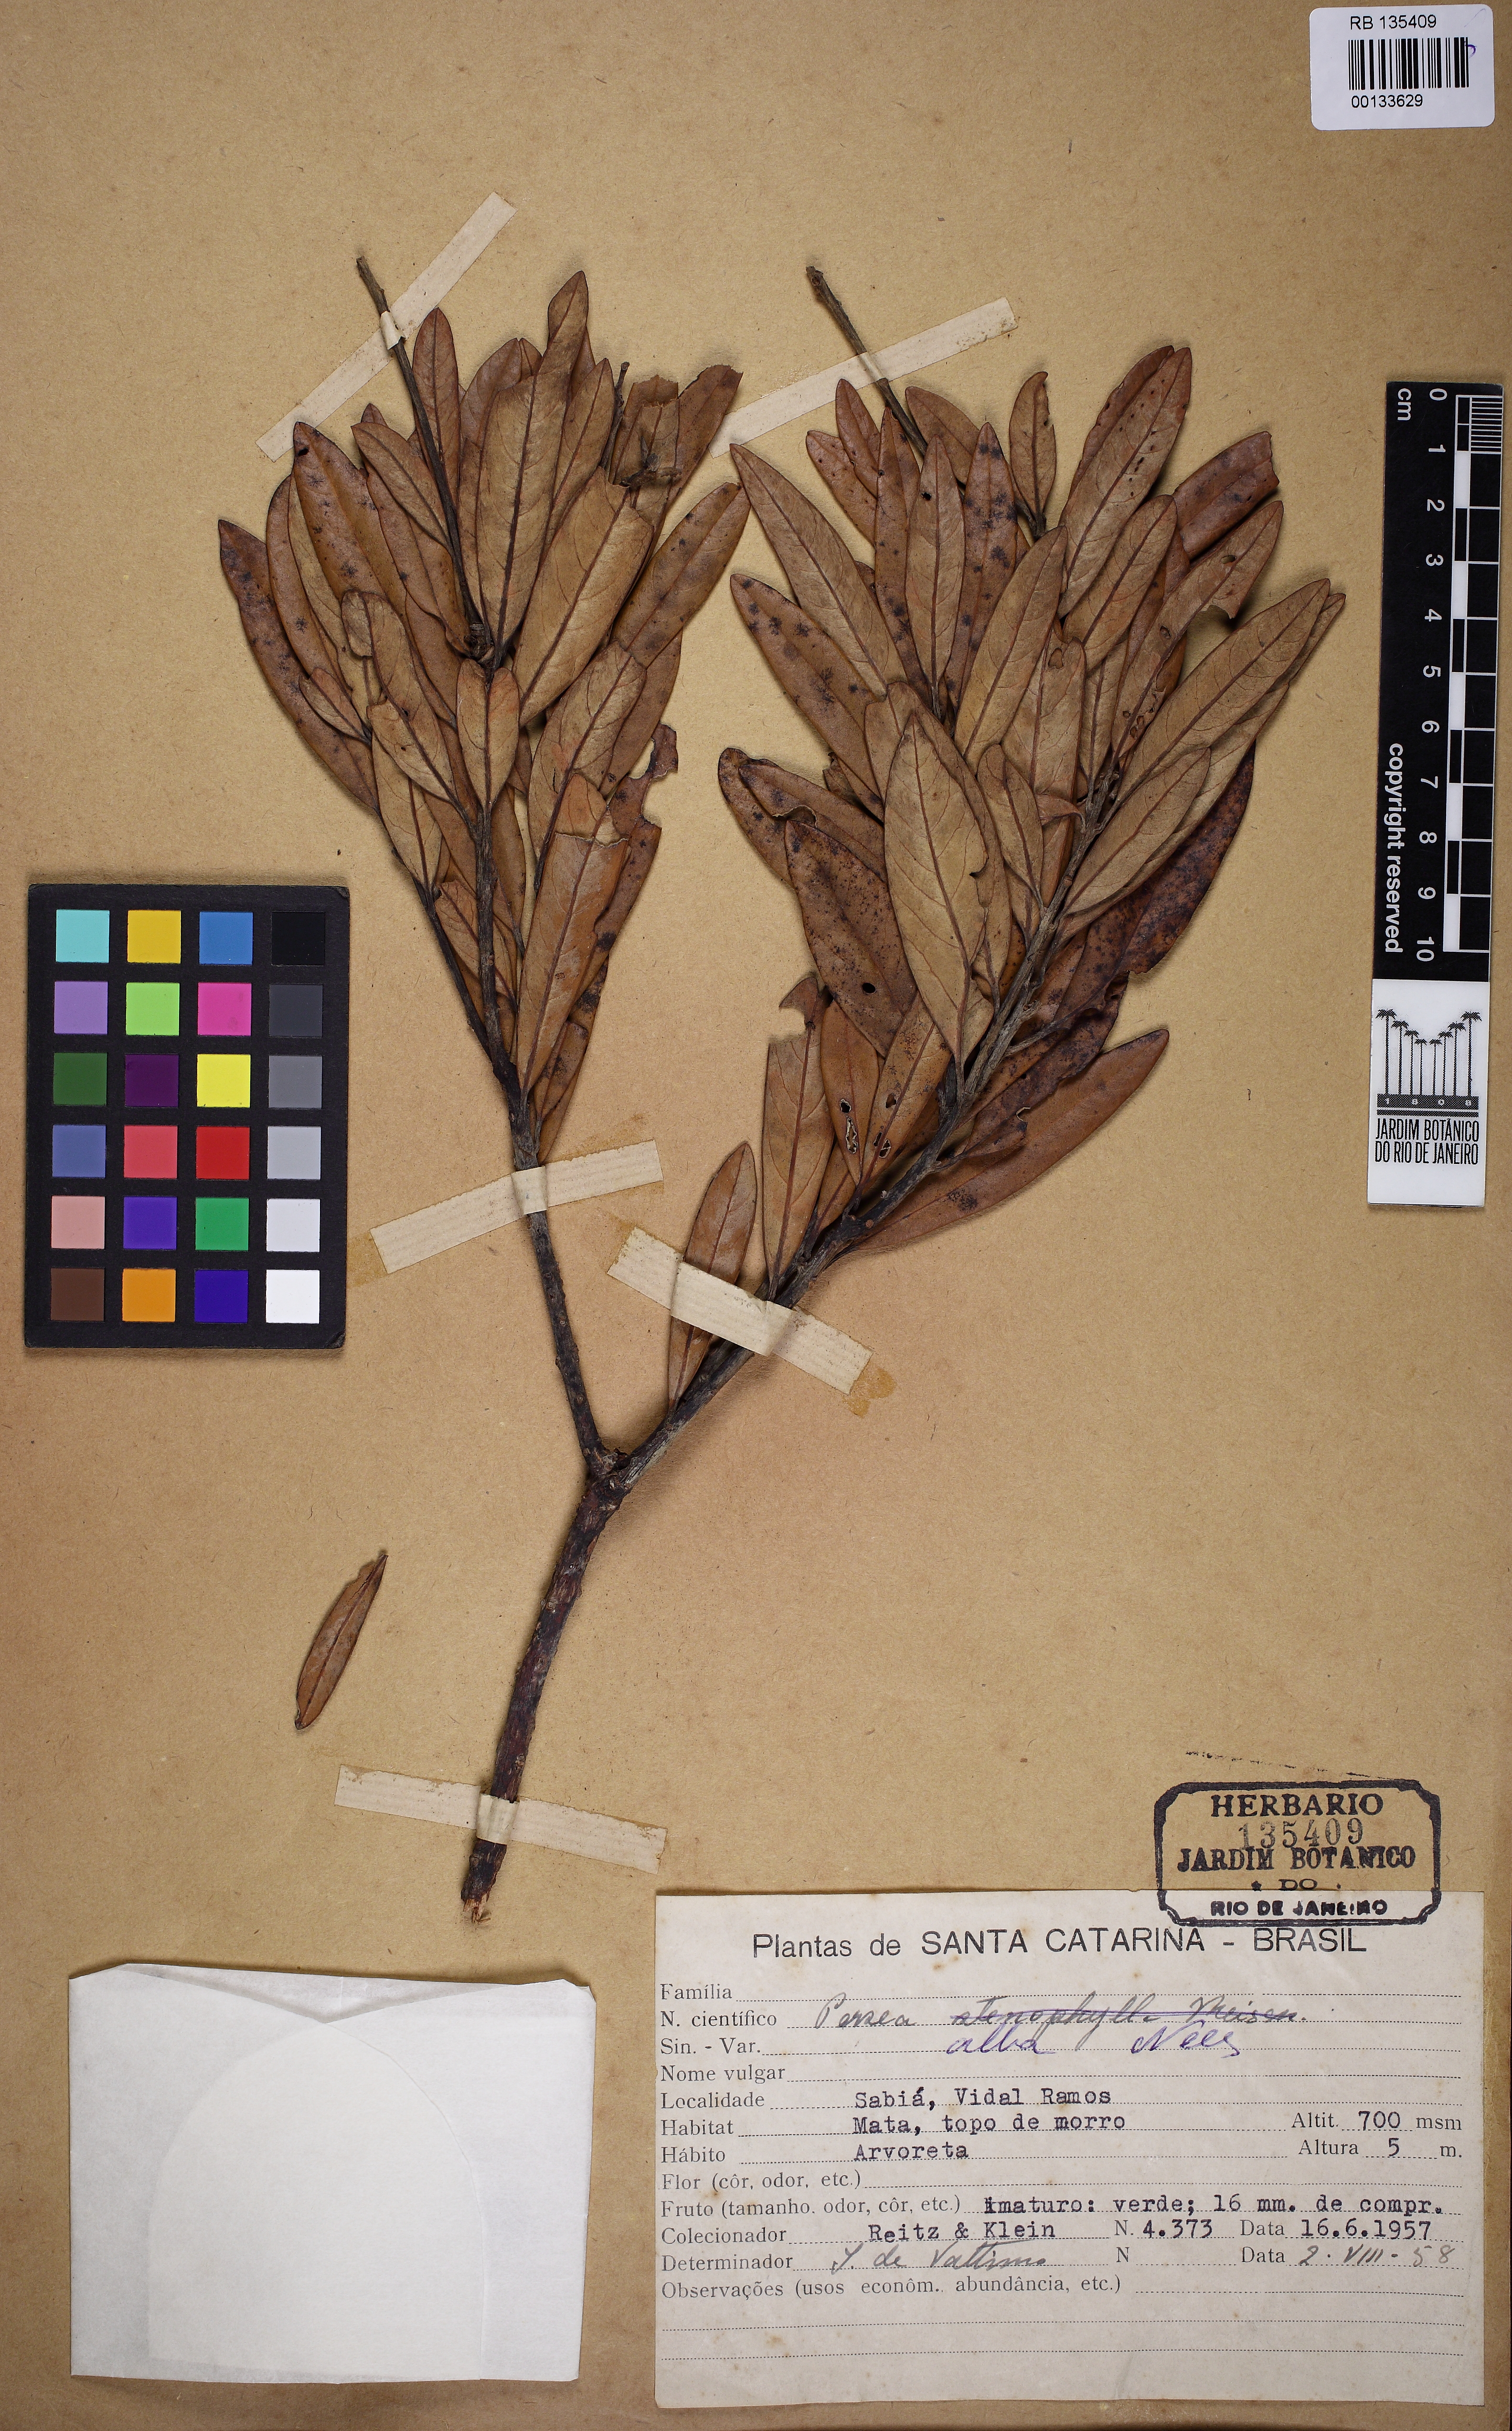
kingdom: Plantae
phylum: Tracheophyta
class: Magnoliopsida
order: Laurales
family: Lauraceae
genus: Persea
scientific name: Persea alba
